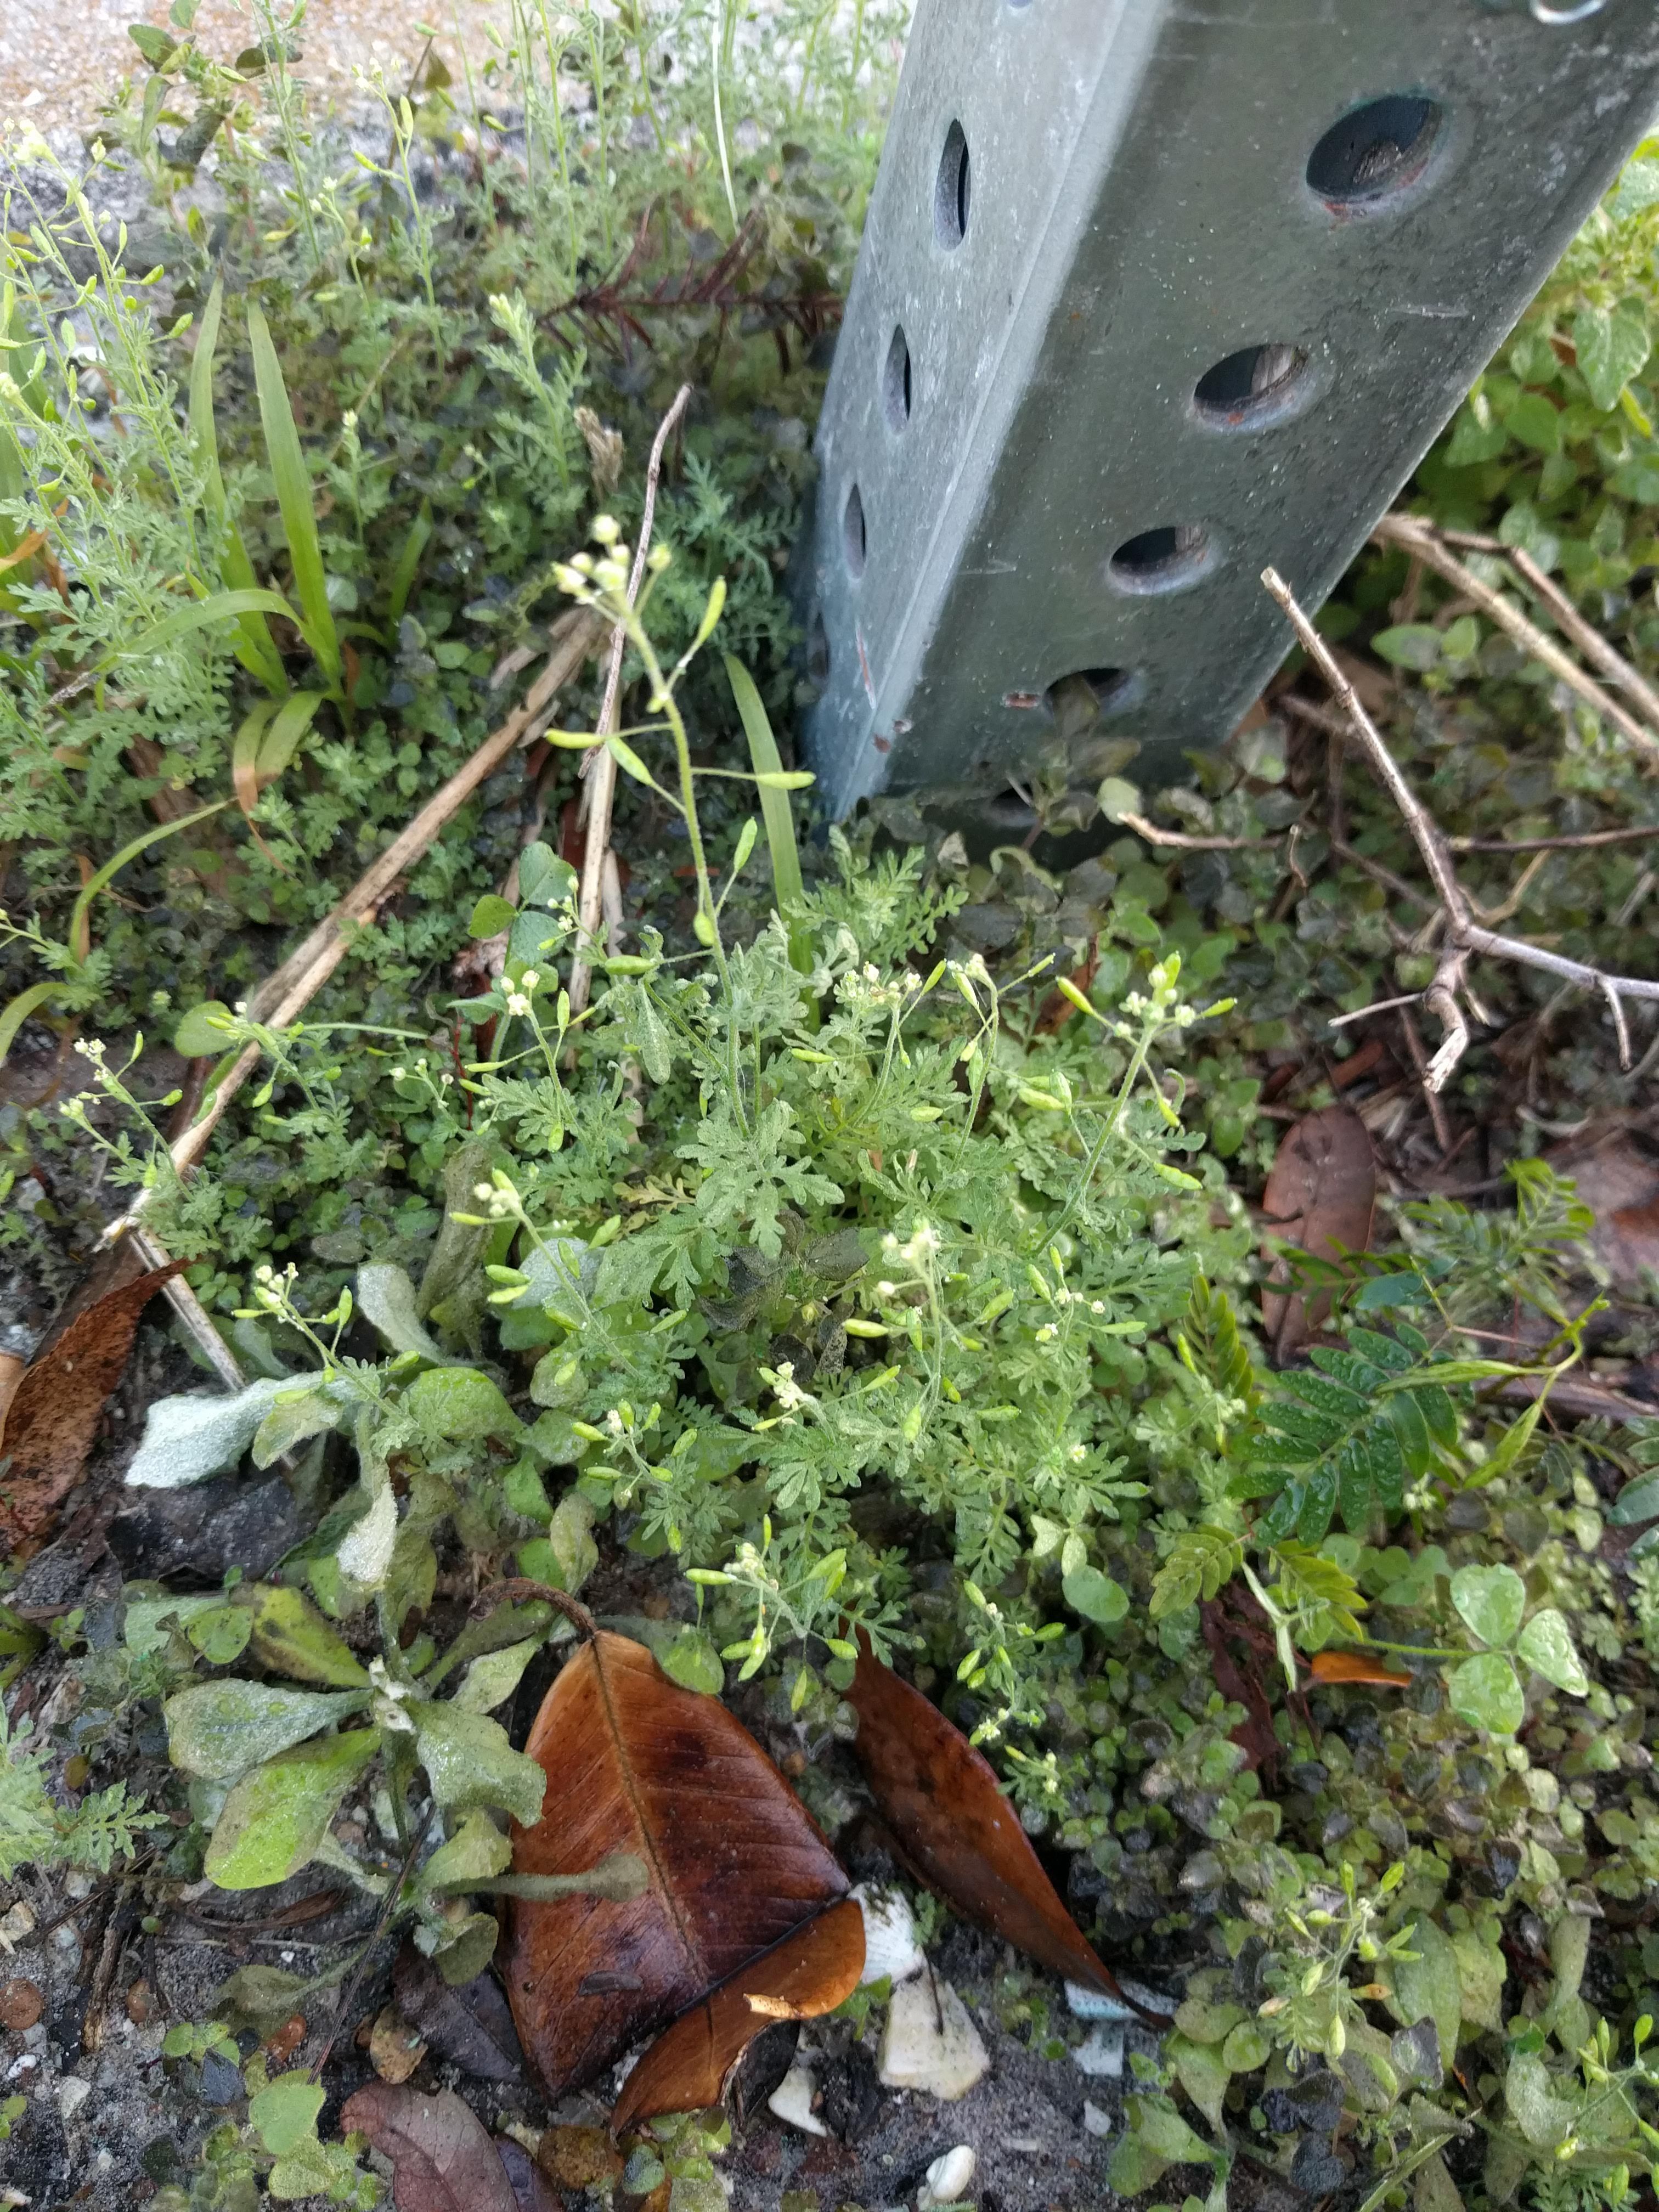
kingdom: Plantae
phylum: Tracheophyta
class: Magnoliopsida
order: Brassicales
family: Brassicaceae
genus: Descurainia
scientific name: Descurainia pinnata
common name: Western tansy mustard
